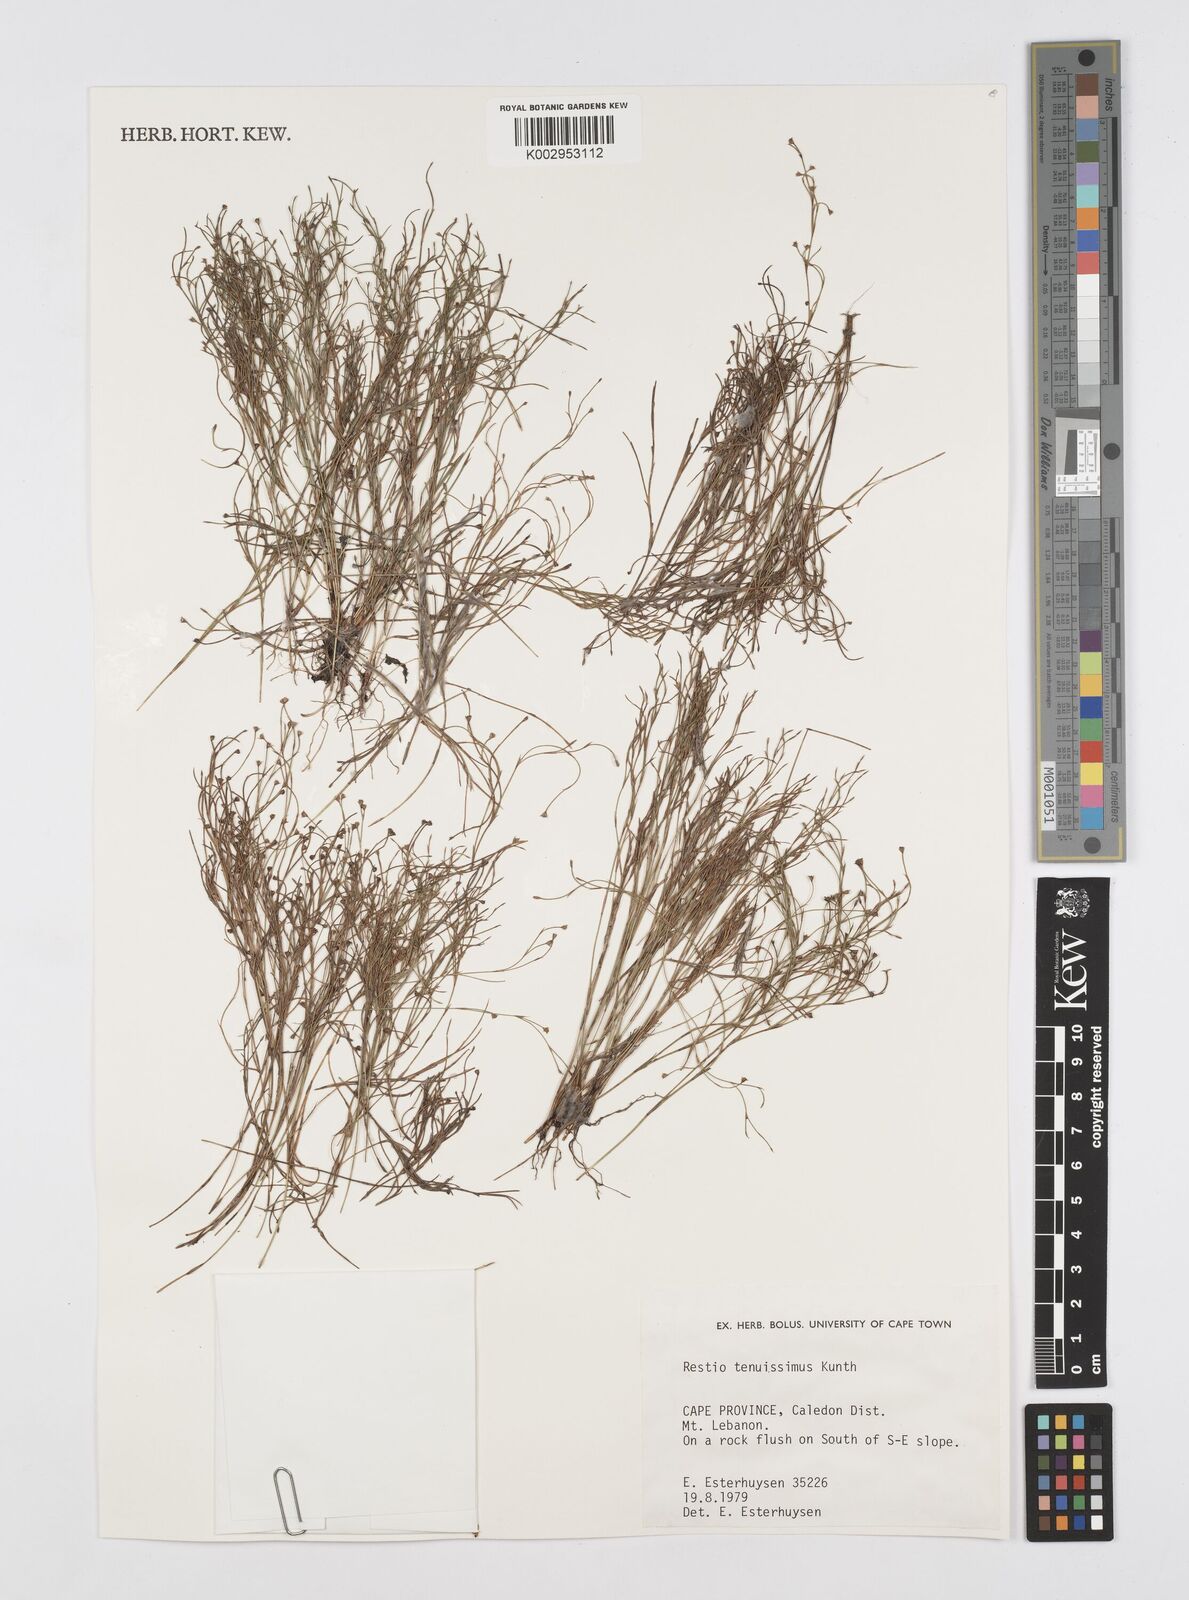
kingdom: Plantae
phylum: Tracheophyta
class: Liliopsida
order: Poales
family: Restionaceae
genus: Restio
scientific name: Restio tenuissimus
